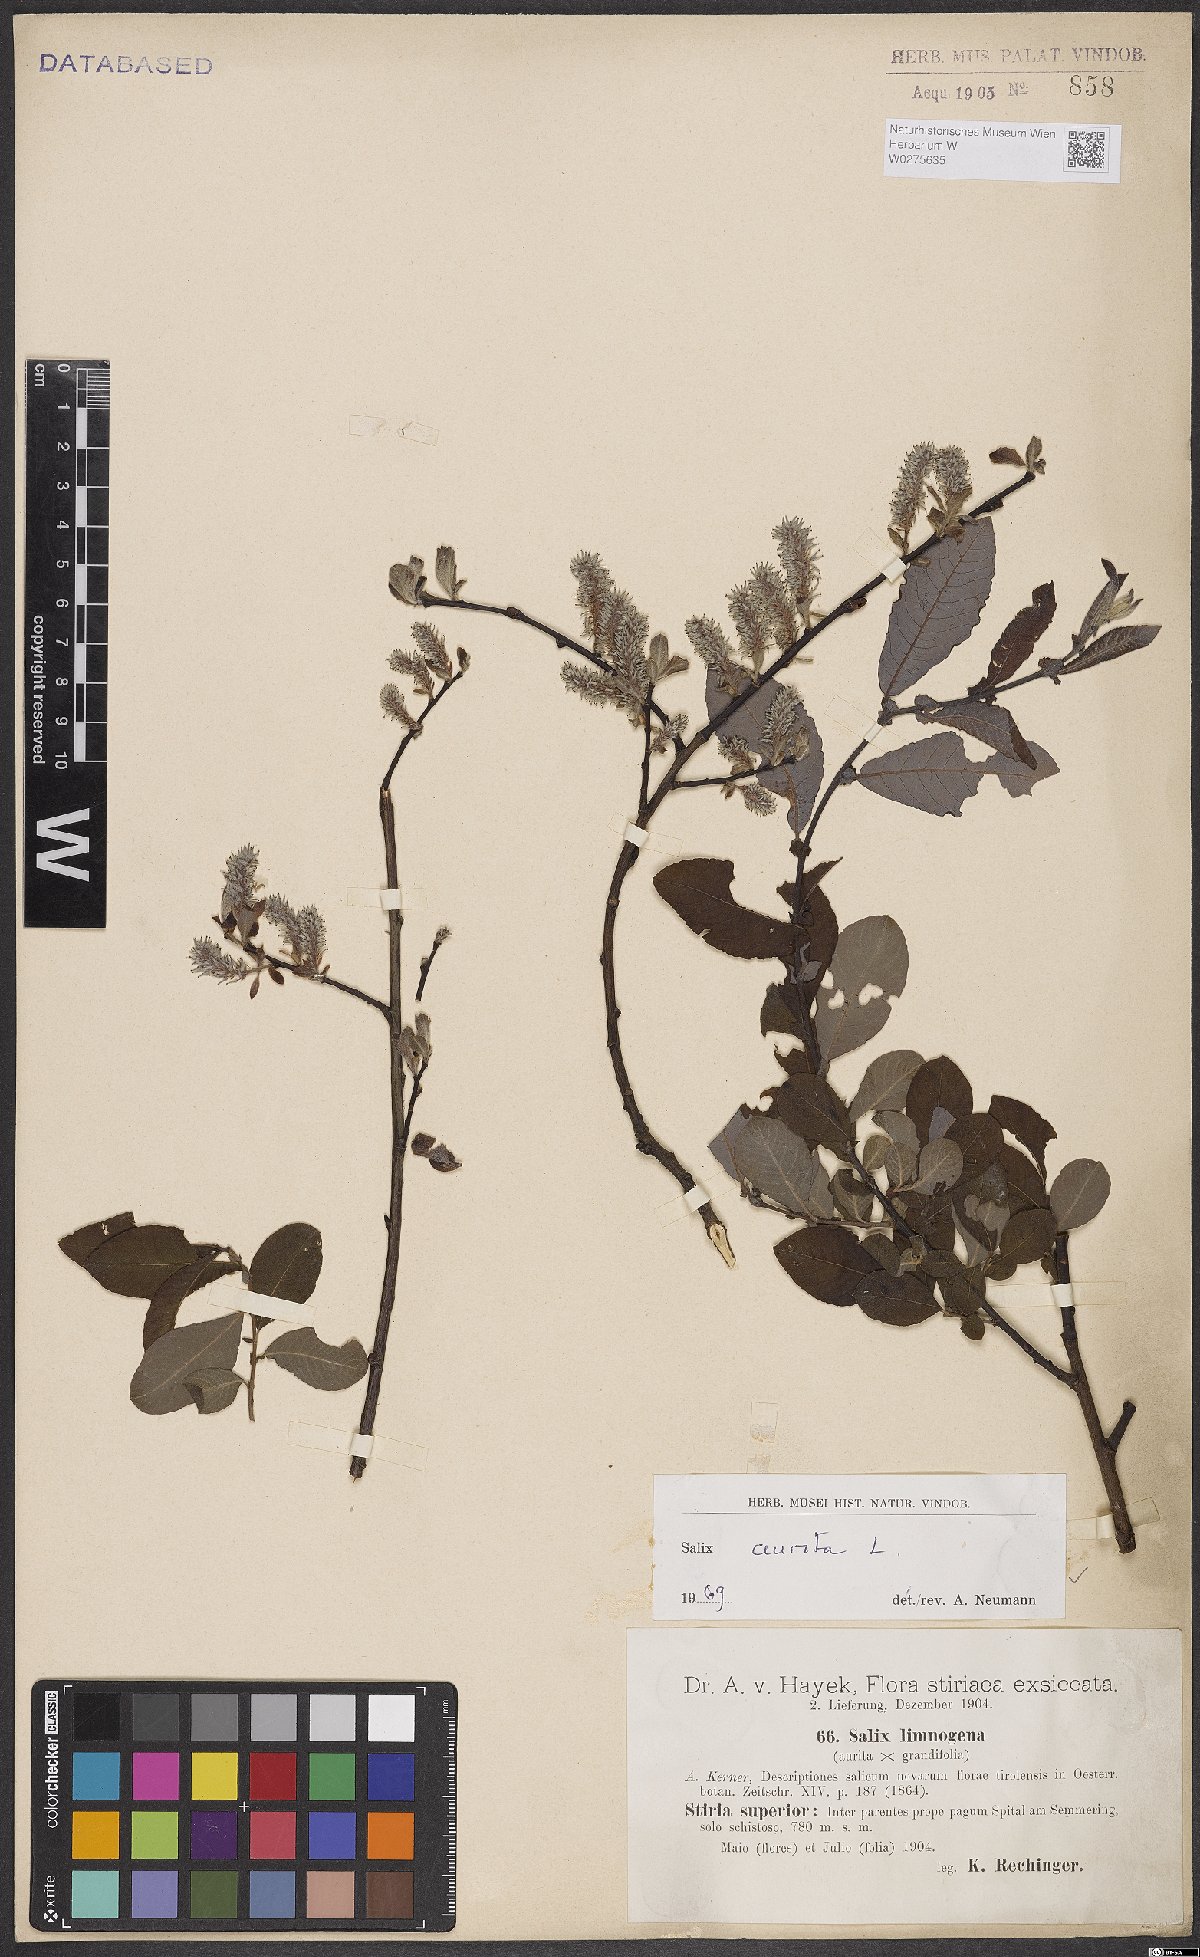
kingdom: Plantae
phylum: Tracheophyta
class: Magnoliopsida
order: Malpighiales
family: Salicaceae
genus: Salix
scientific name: Salix aurita
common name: Eared willow
